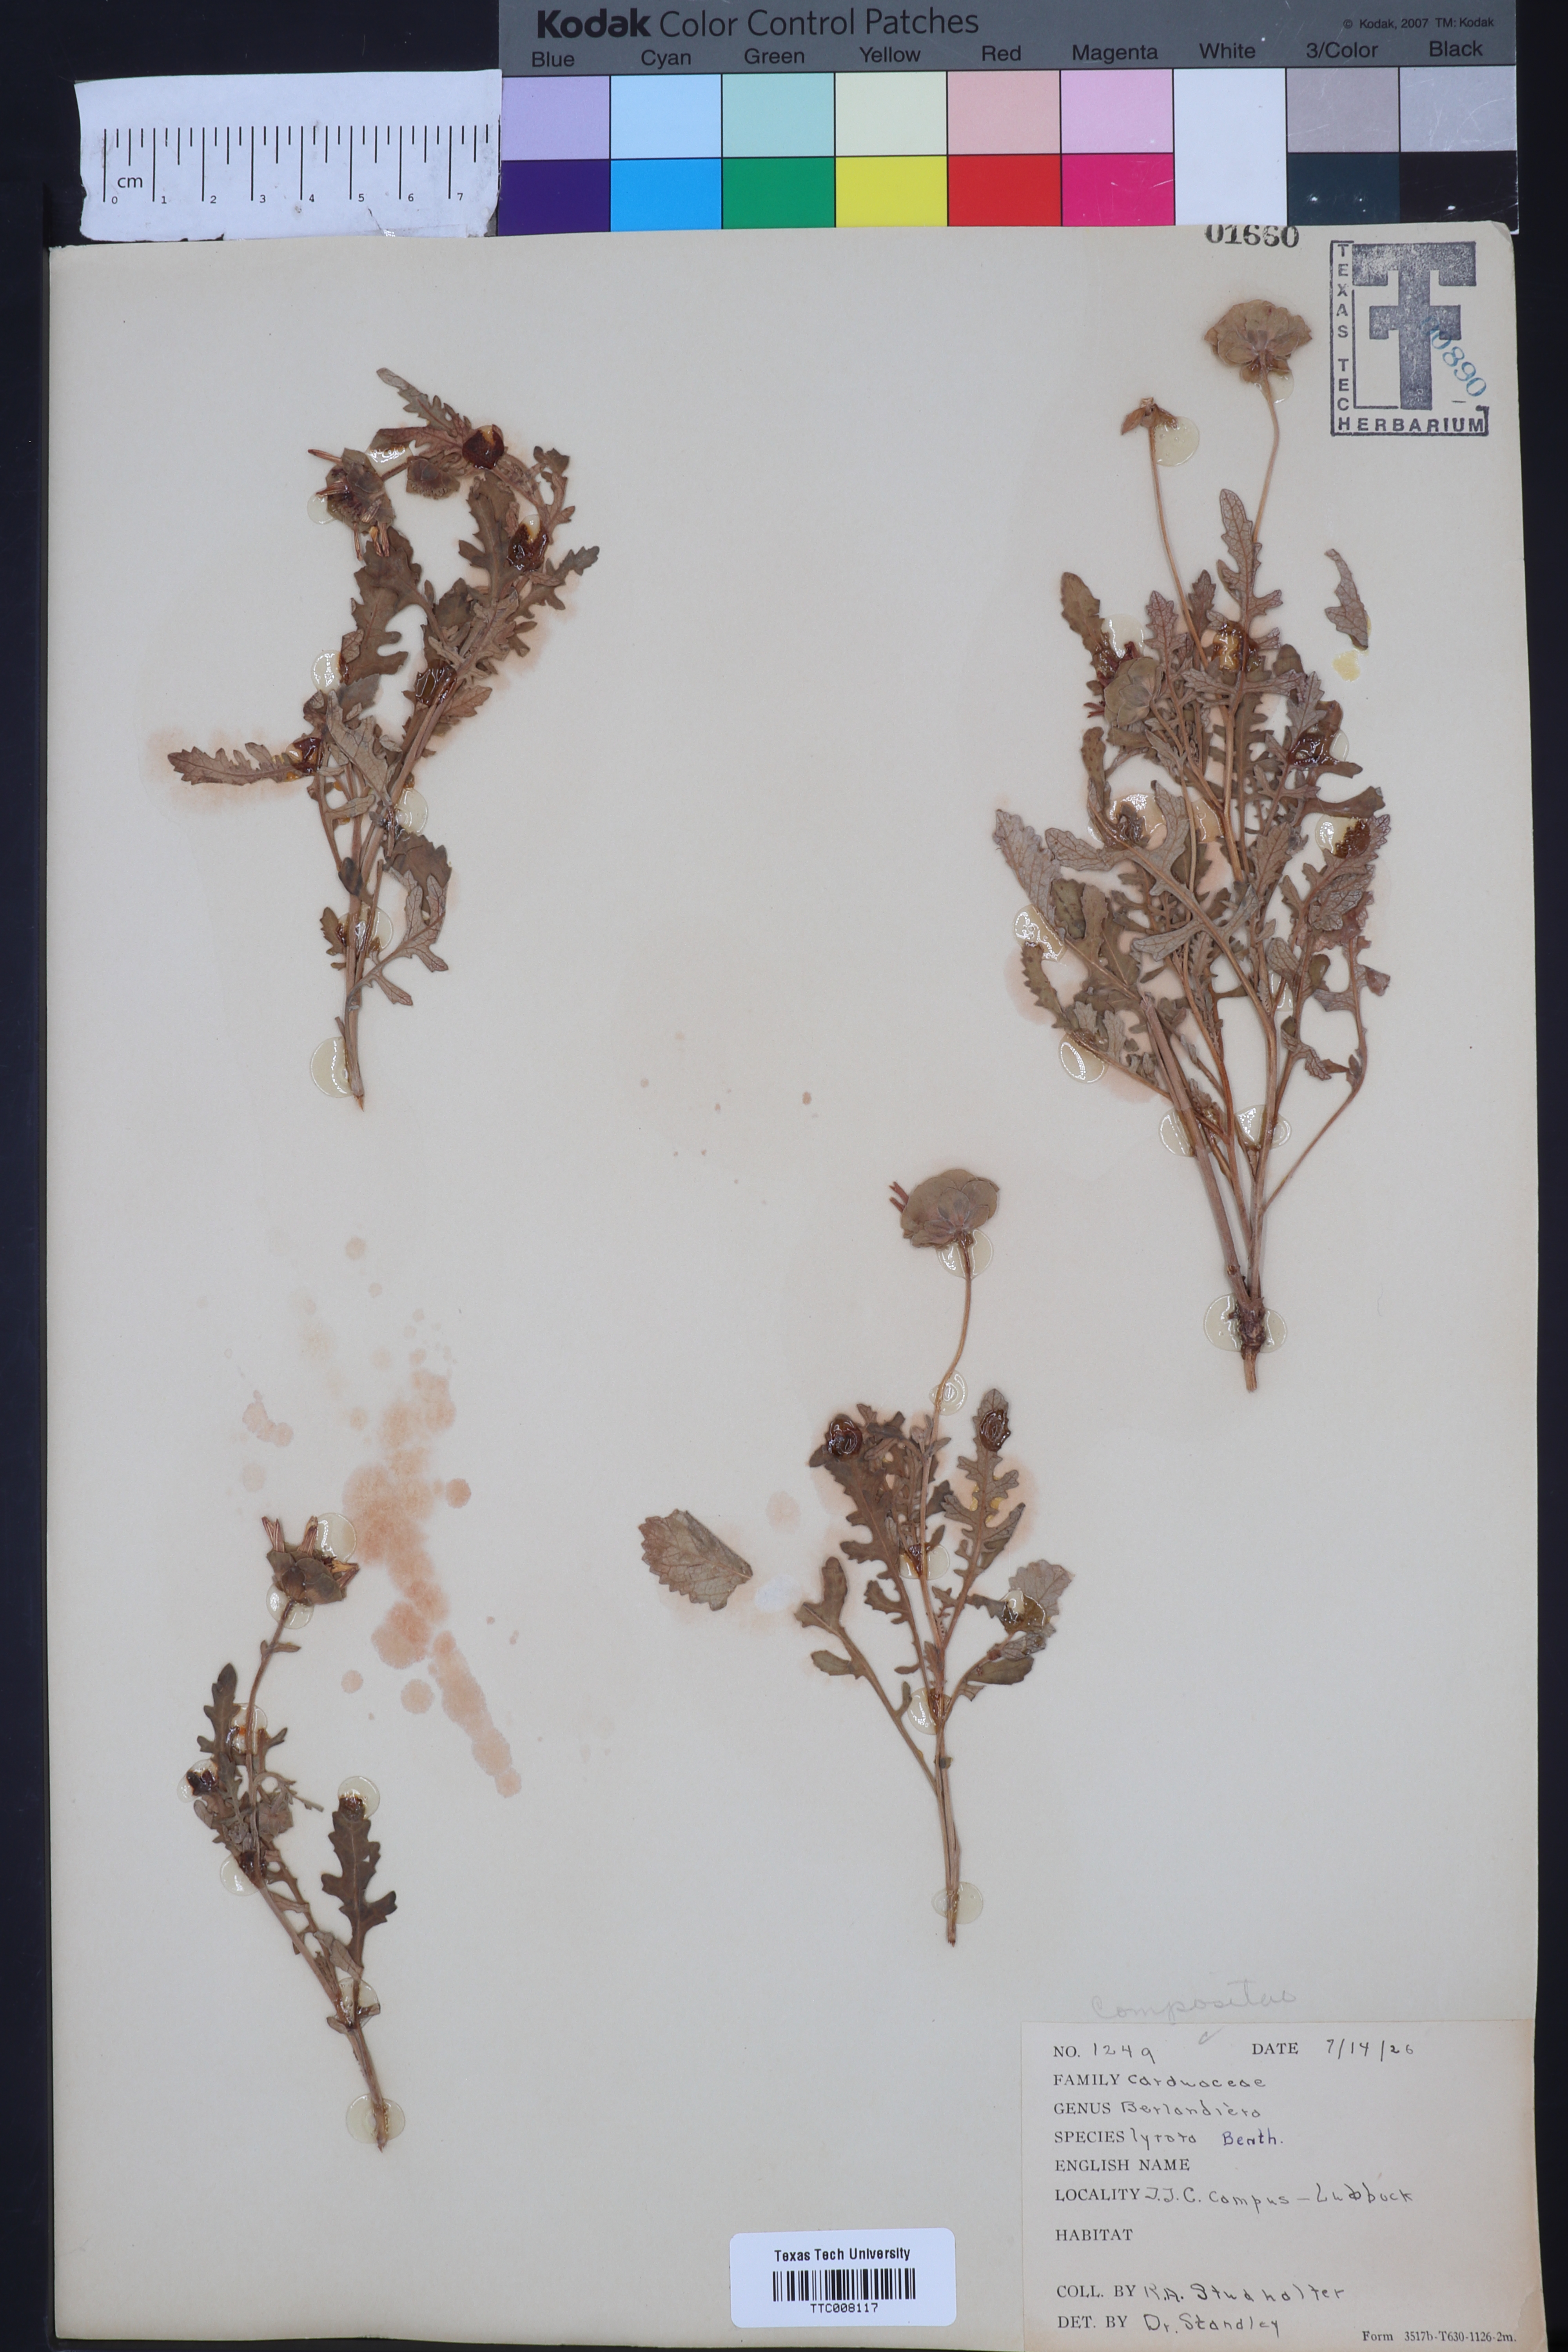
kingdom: Plantae
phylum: Tracheophyta
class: Magnoliopsida
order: Asterales
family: Asteraceae
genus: Berlandiera
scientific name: Berlandiera lyrata
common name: Chocolate-flower
